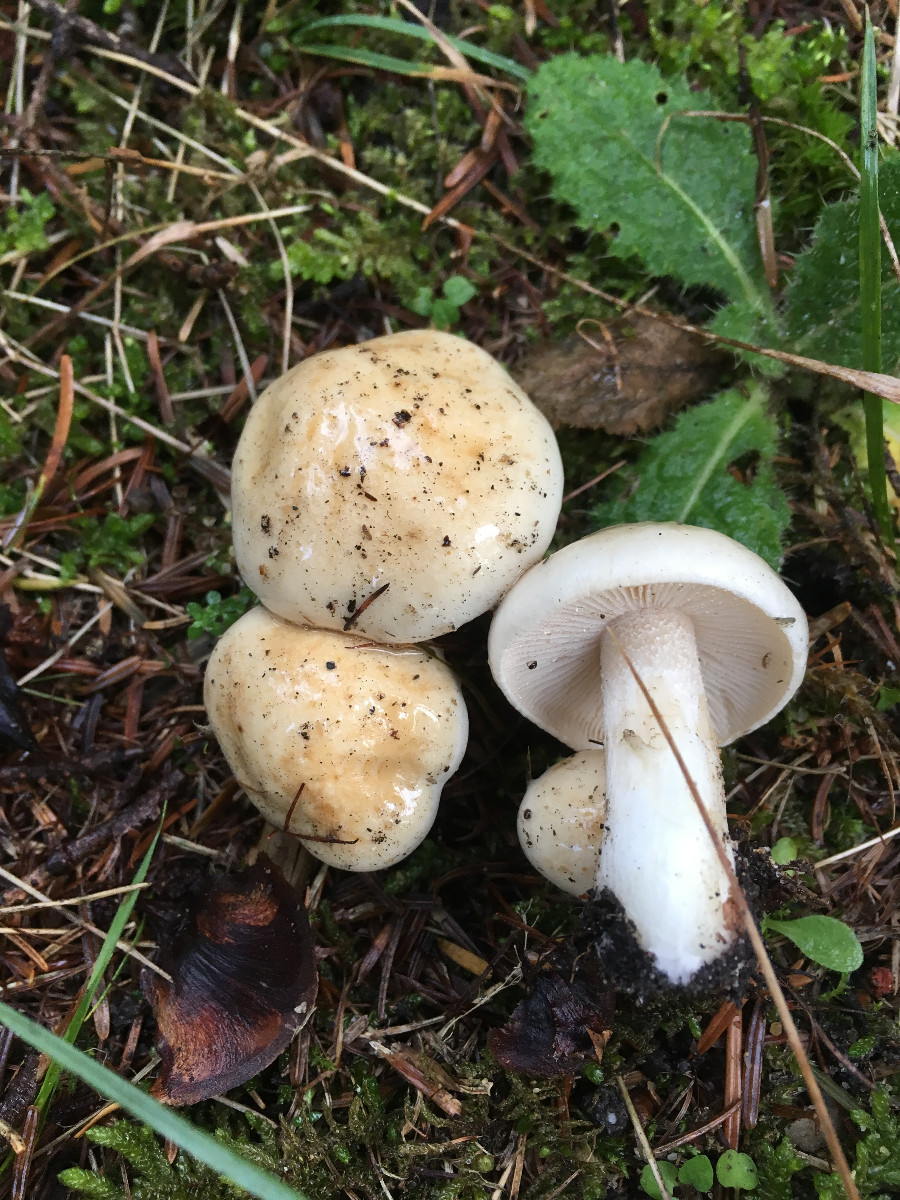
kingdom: Fungi
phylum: Basidiomycota
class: Agaricomycetes
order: Agaricales
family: Hymenogastraceae
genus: Hebeloma
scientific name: Hebeloma
